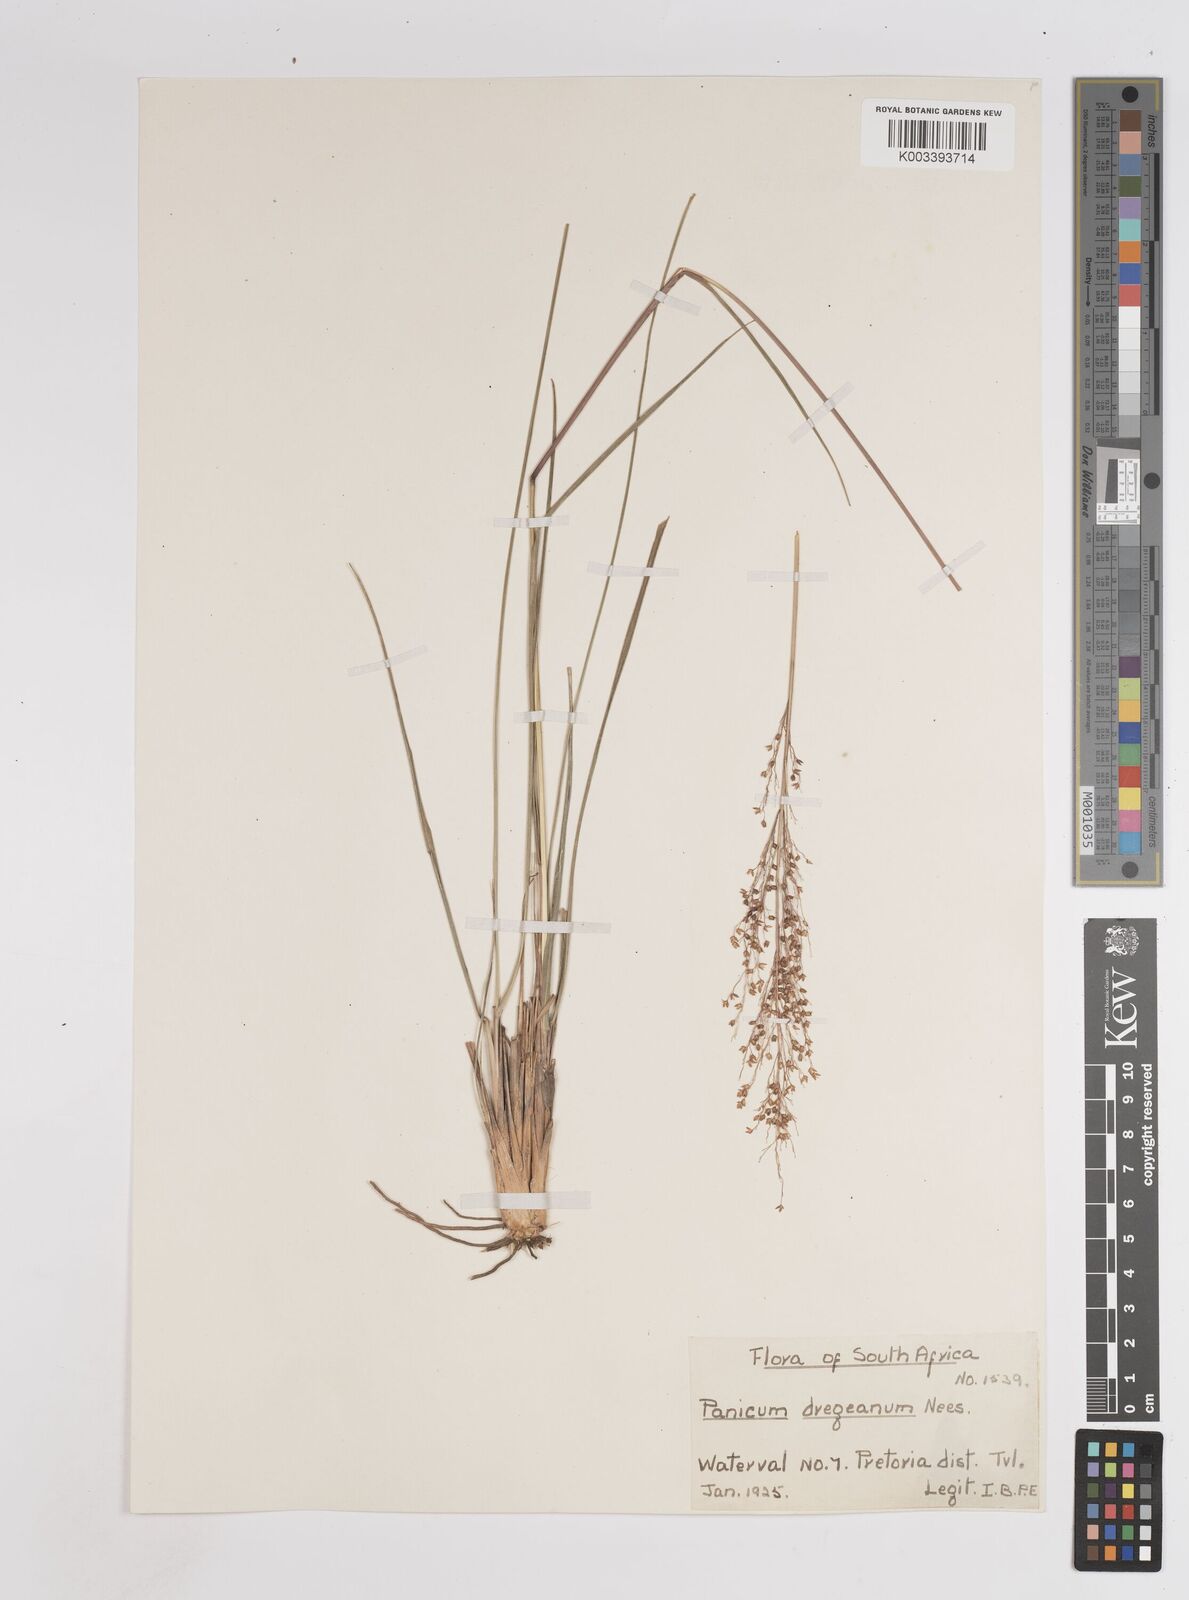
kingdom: Plantae
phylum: Tracheophyta
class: Liliopsida
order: Poales
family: Poaceae
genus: Panicum
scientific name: Panicum dregeanum
